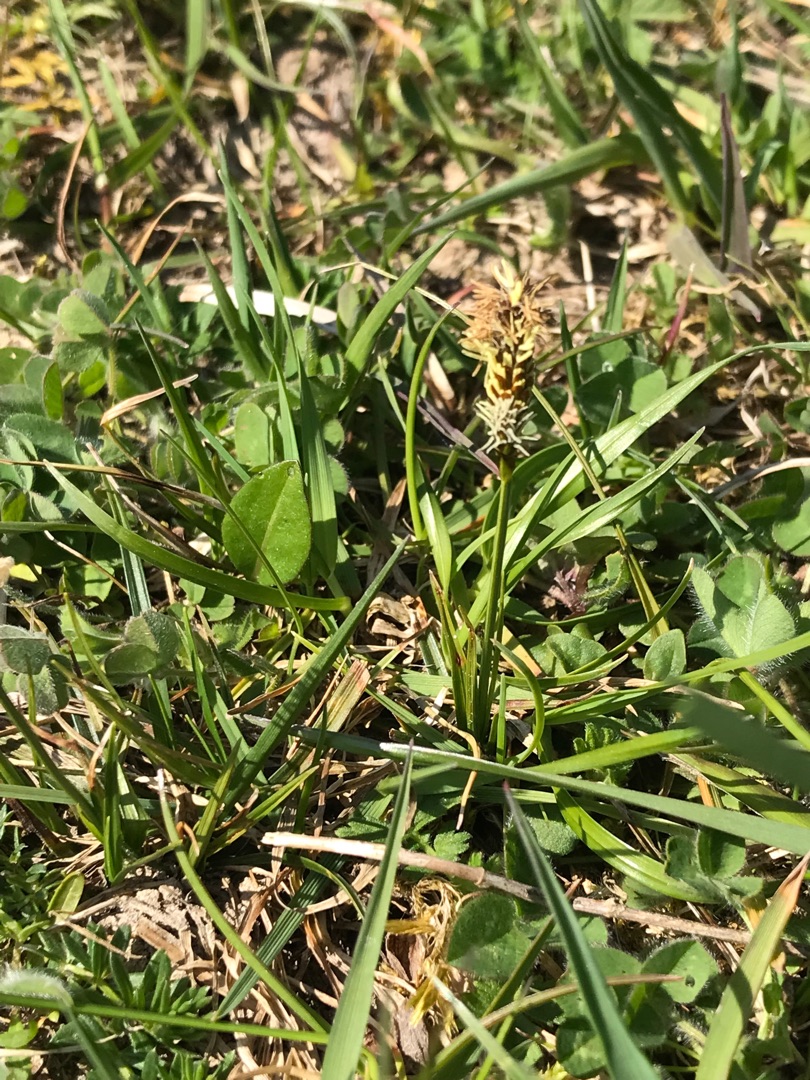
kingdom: Plantae
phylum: Tracheophyta
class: Liliopsida
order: Poales
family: Cyperaceae
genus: Carex
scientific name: Carex caryophyllea
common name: Vår-star
